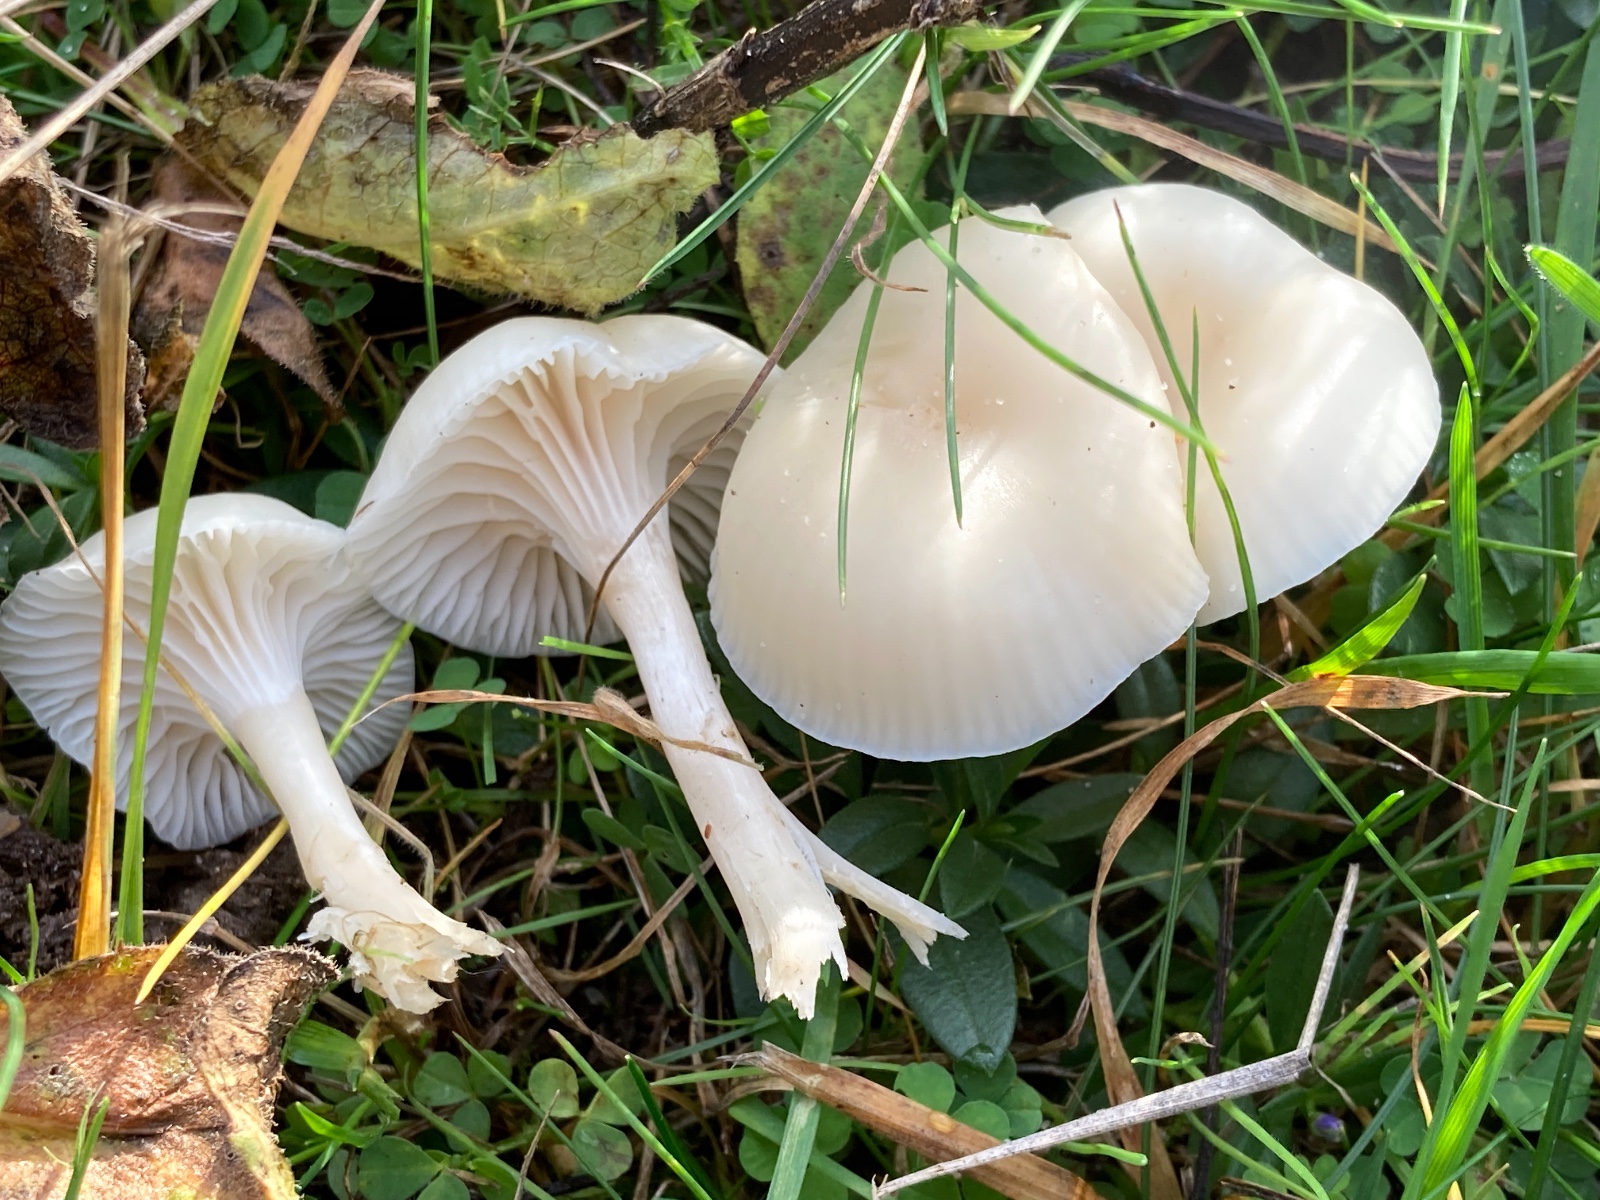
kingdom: Fungi
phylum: Basidiomycota
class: Agaricomycetes
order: Agaricales
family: Hygrophoraceae
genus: Cuphophyllus
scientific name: Cuphophyllus virgineus
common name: snehvid vokshat
